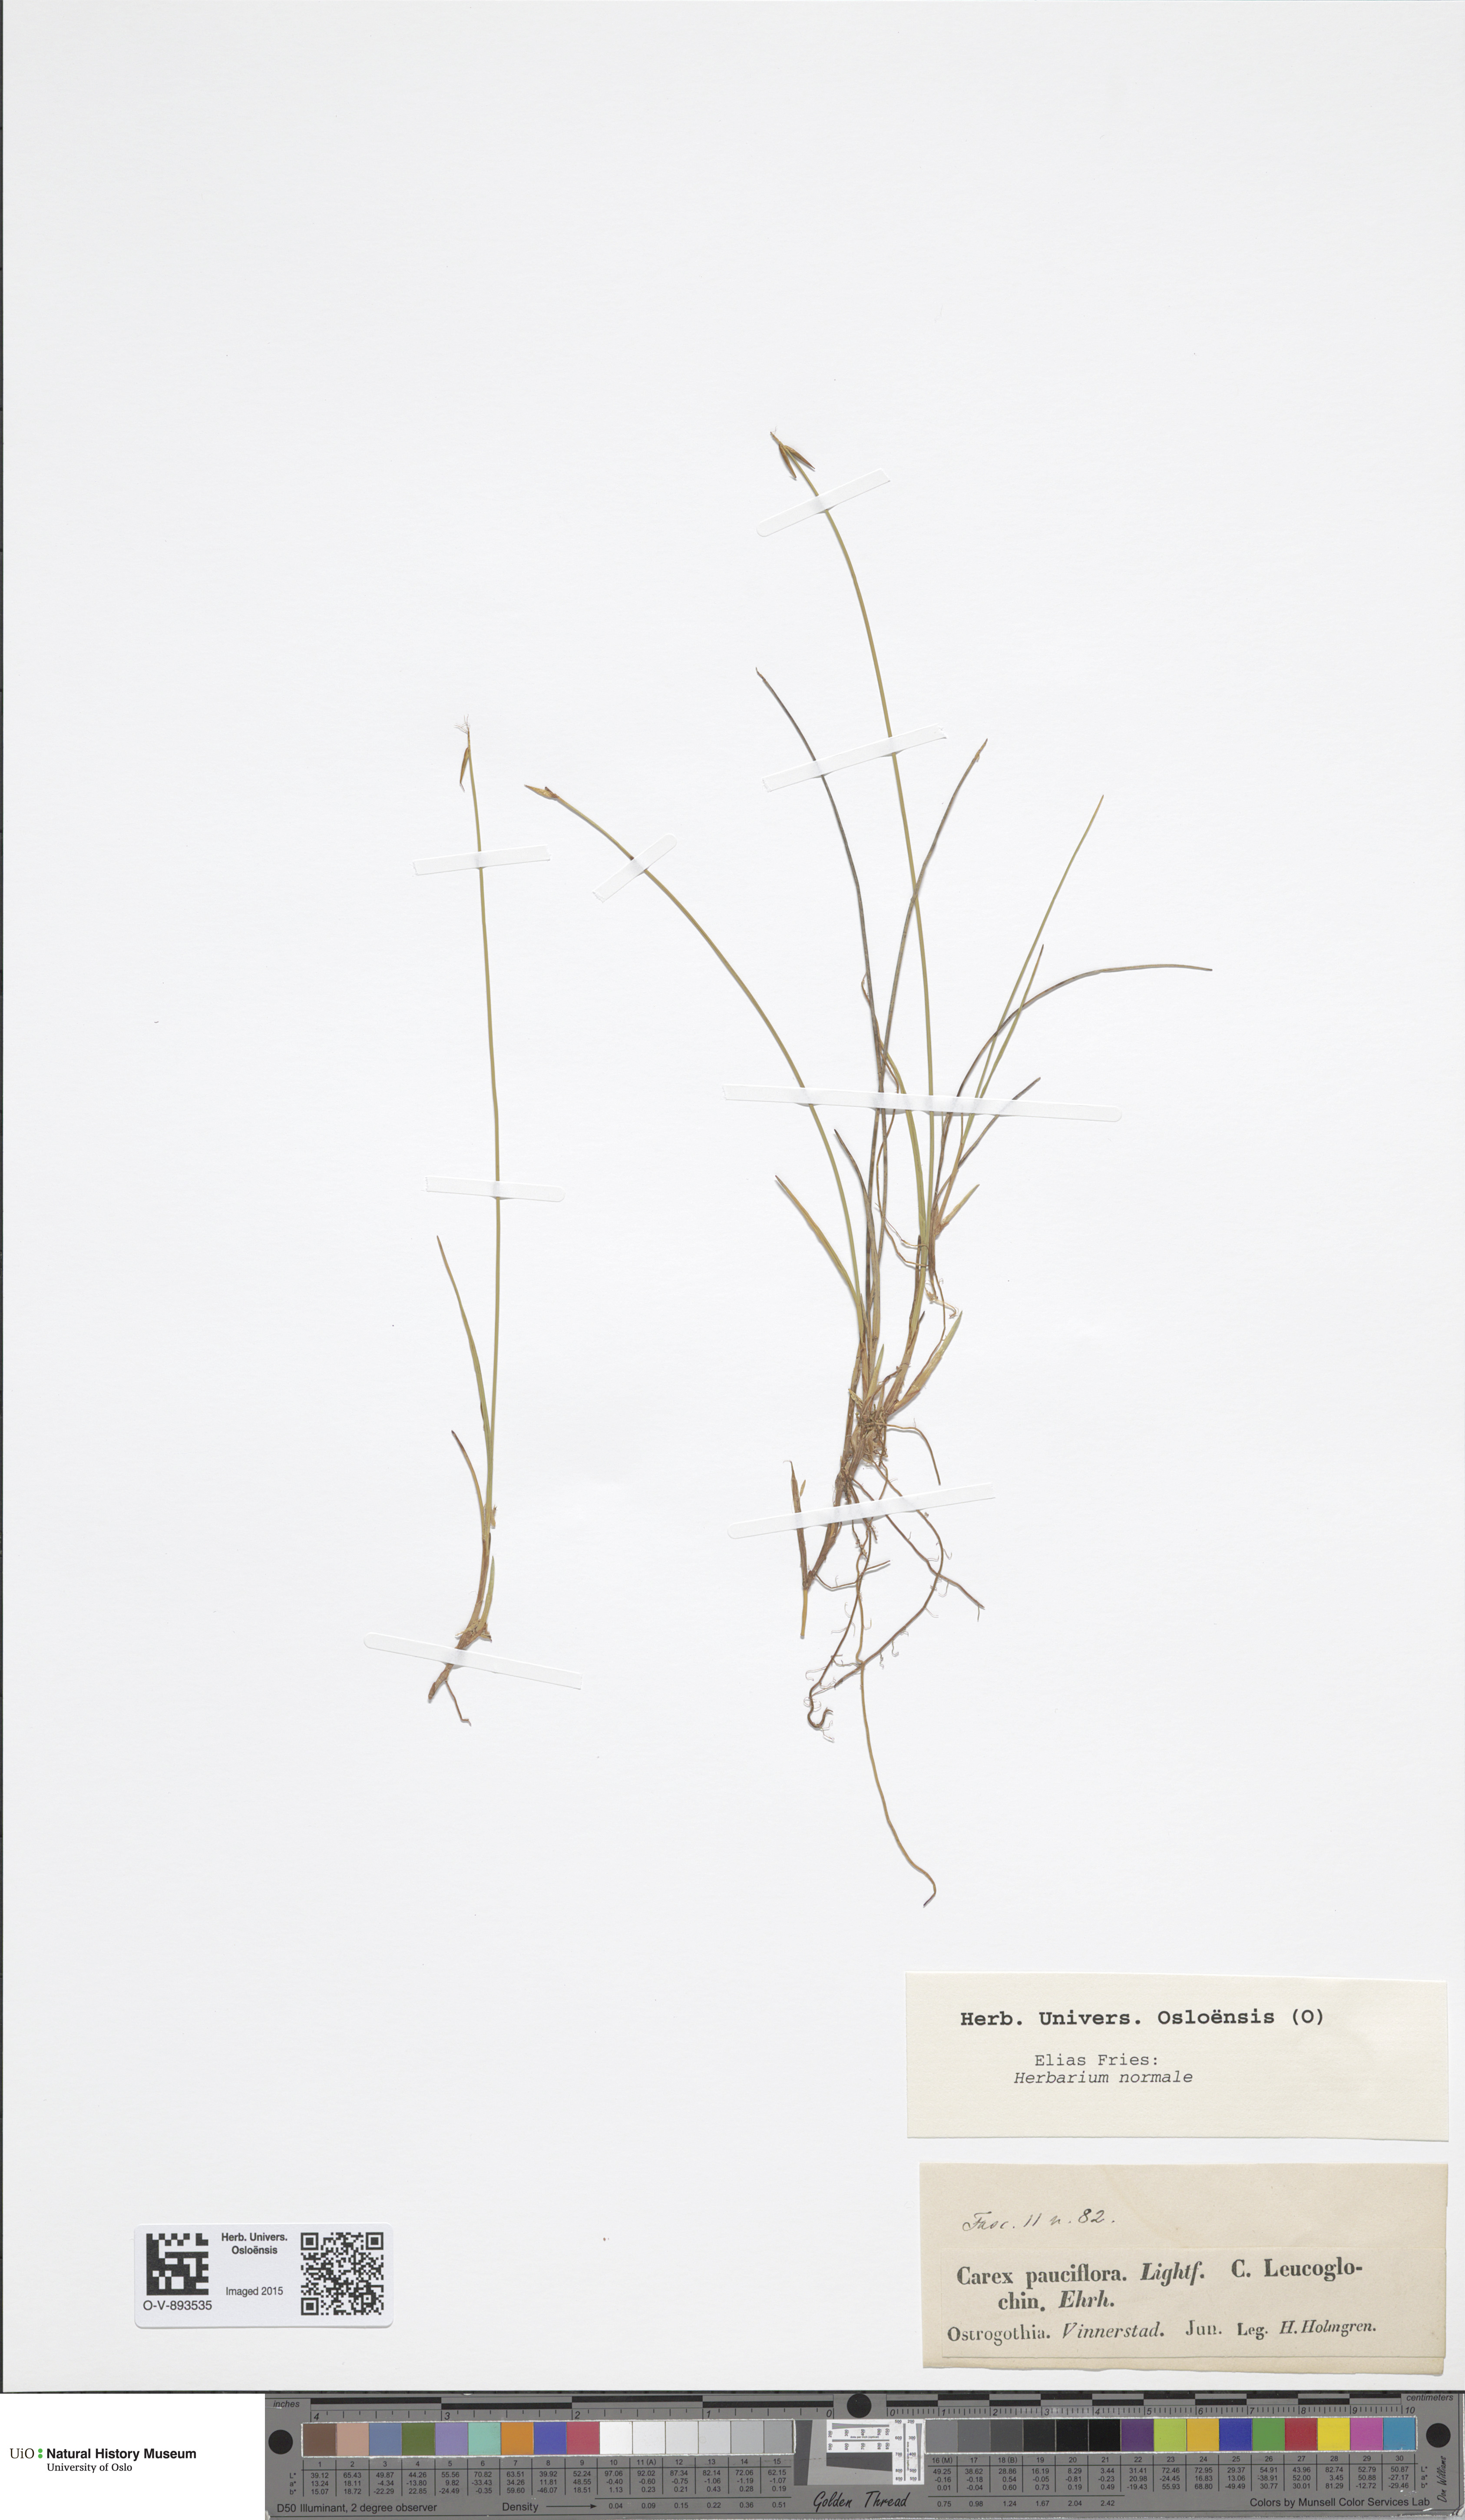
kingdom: Plantae
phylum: Tracheophyta
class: Liliopsida
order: Poales
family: Cyperaceae
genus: Carex
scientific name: Carex pauciflora
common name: Few-flowered sedge
